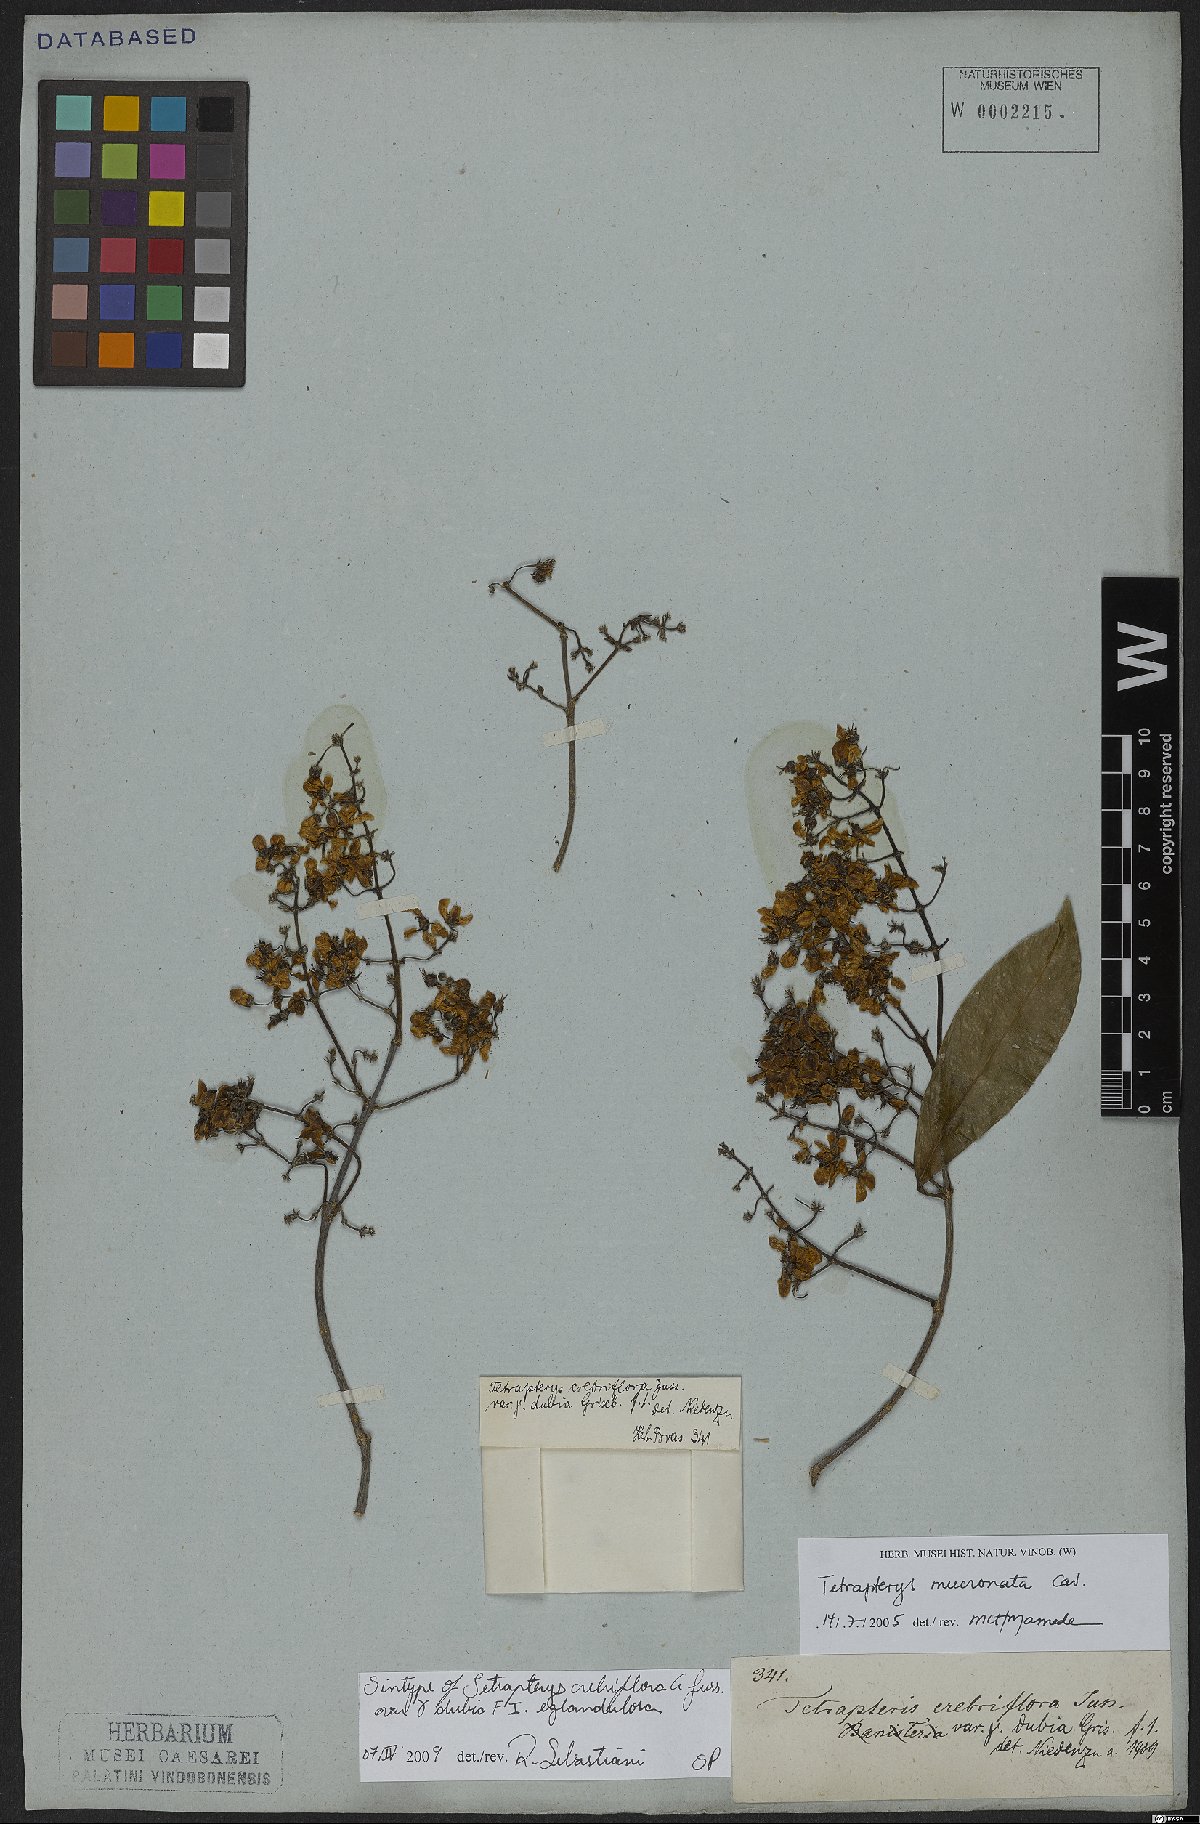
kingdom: Plantae
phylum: Tracheophyta
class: Magnoliopsida
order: Malpighiales
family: Malpighiaceae
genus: Tetrapterys
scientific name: Tetrapterys mucronata
